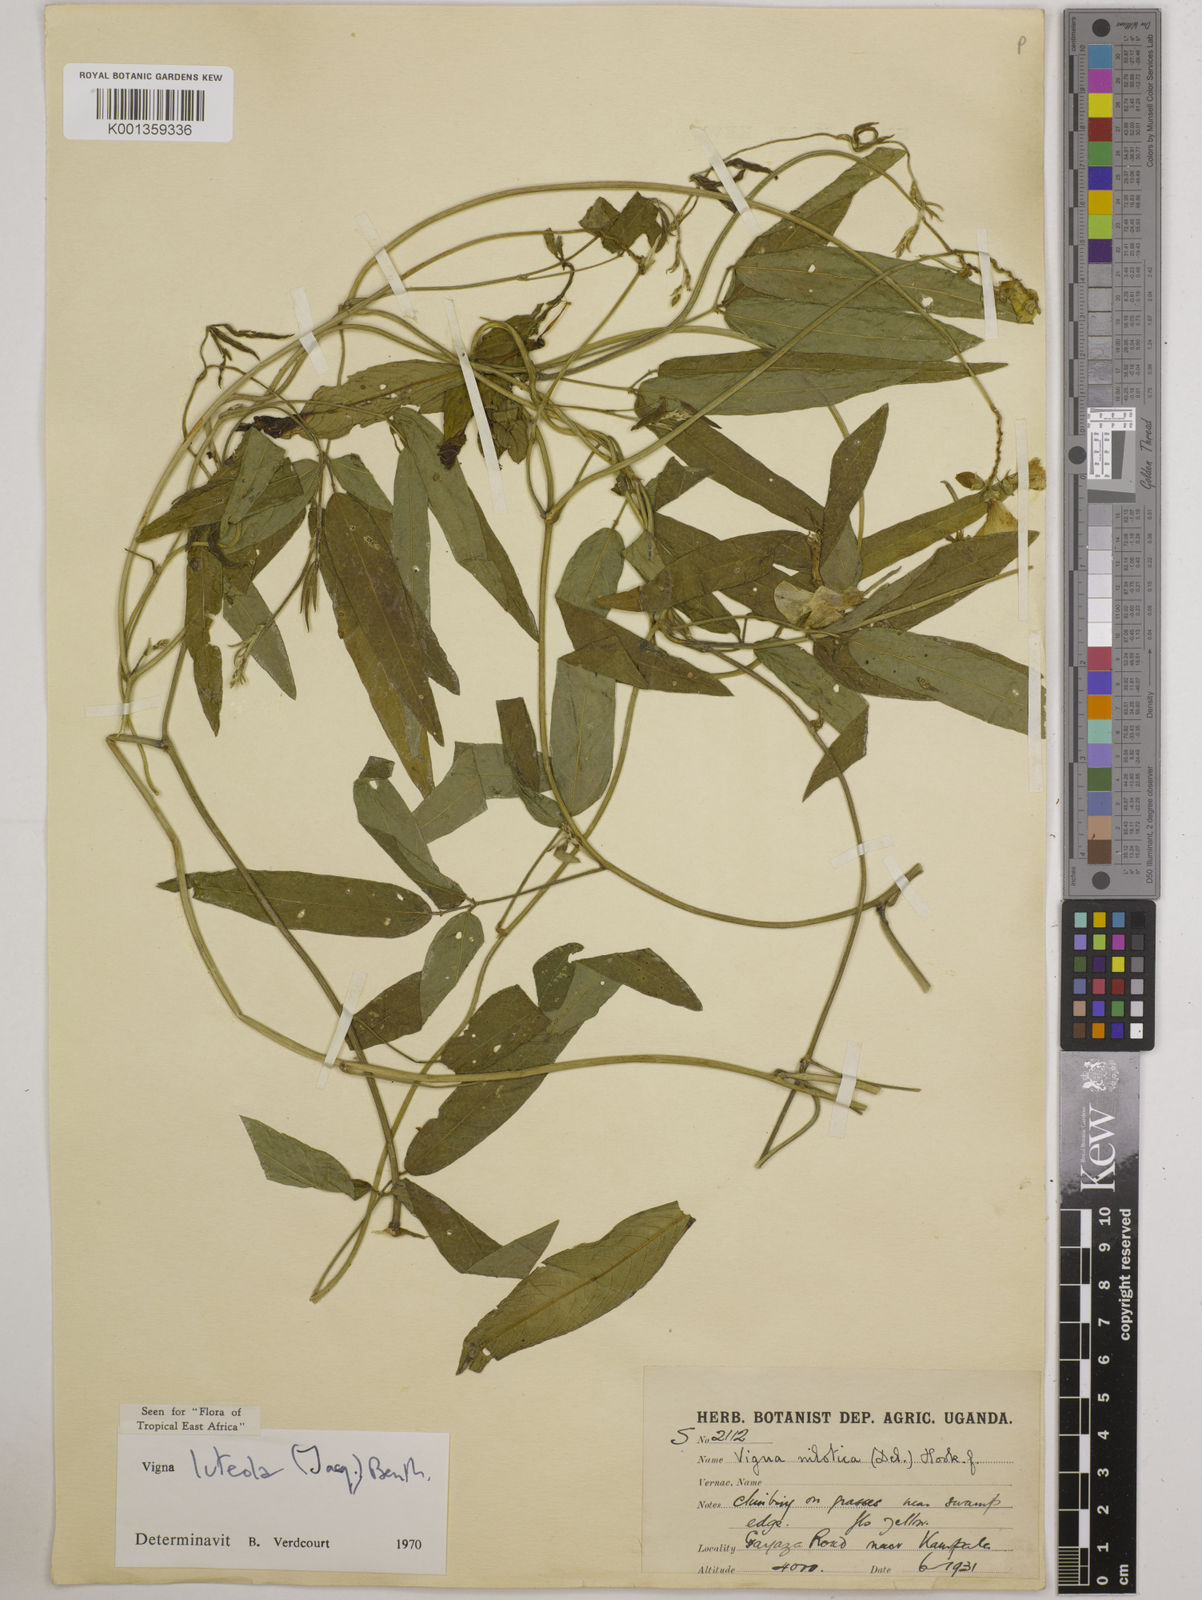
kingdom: Plantae
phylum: Tracheophyta
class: Magnoliopsida
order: Fabales
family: Fabaceae
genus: Vigna
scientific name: Vigna luteola
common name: Hairypod cowpea
